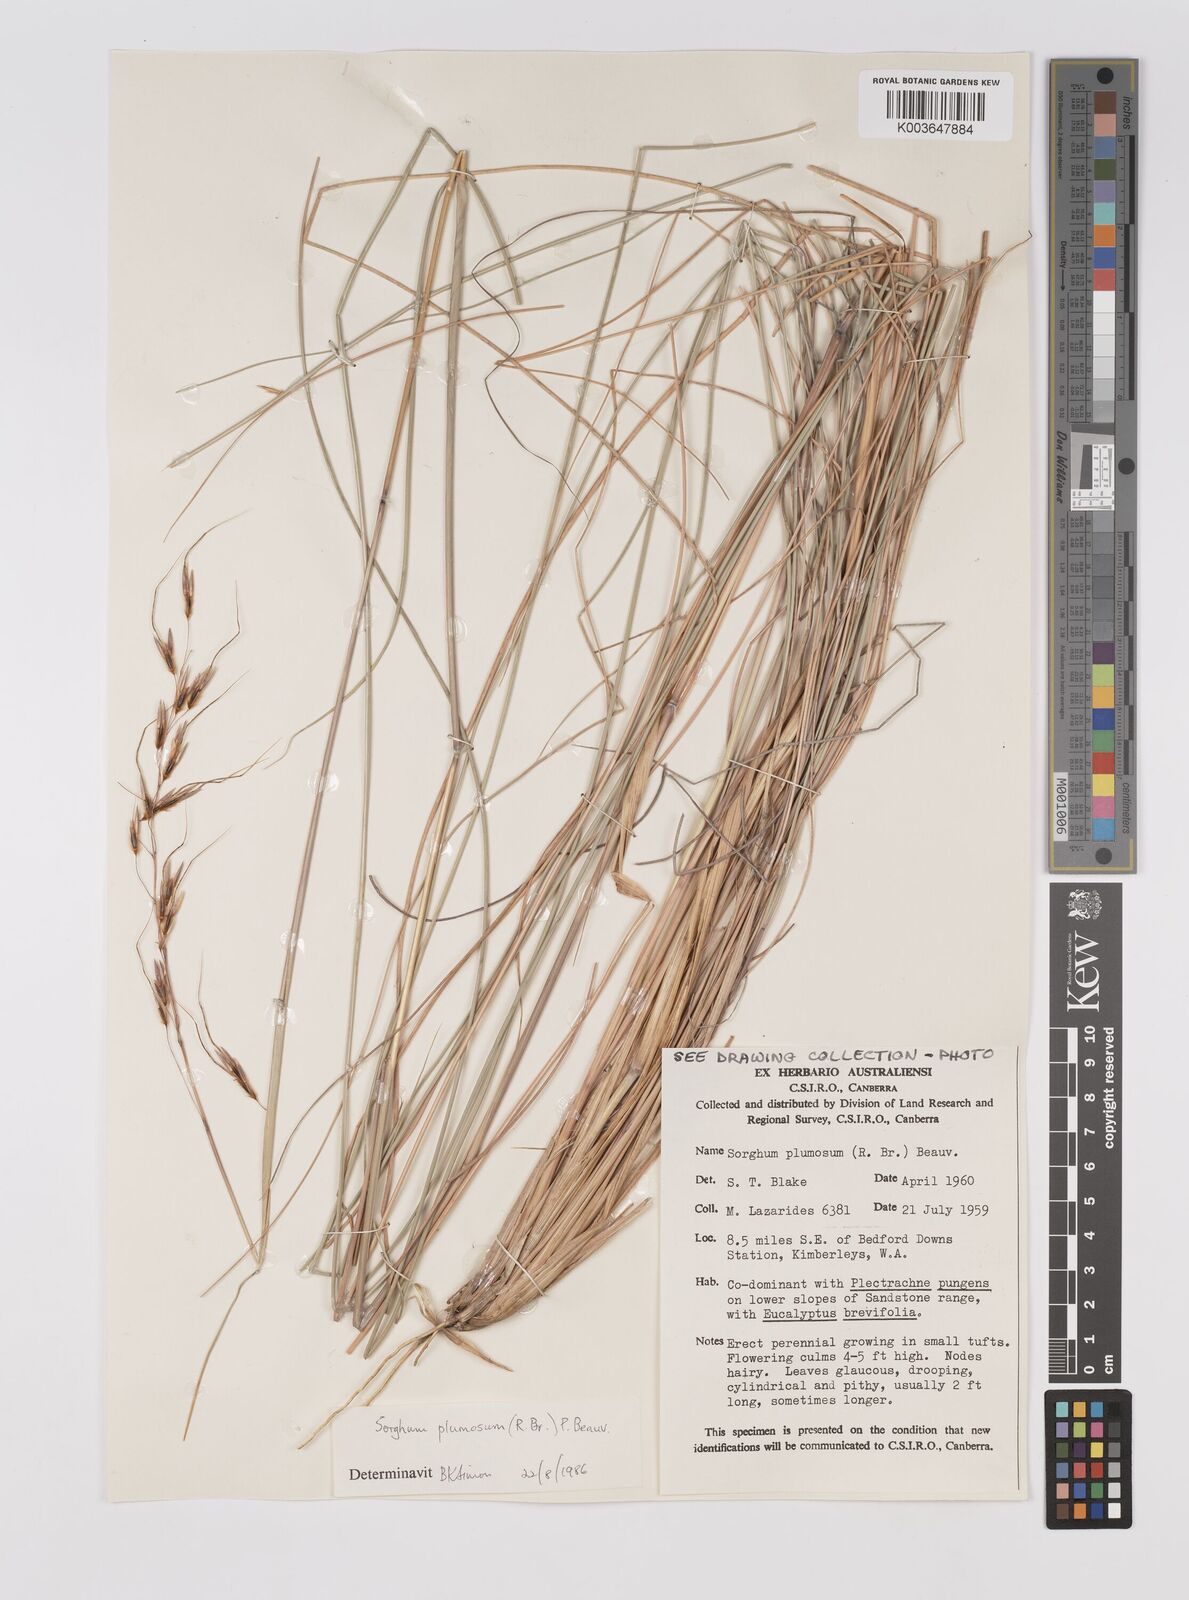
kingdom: Plantae
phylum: Tracheophyta
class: Liliopsida
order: Poales
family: Poaceae
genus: Sarga
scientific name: Sarga plumosa
